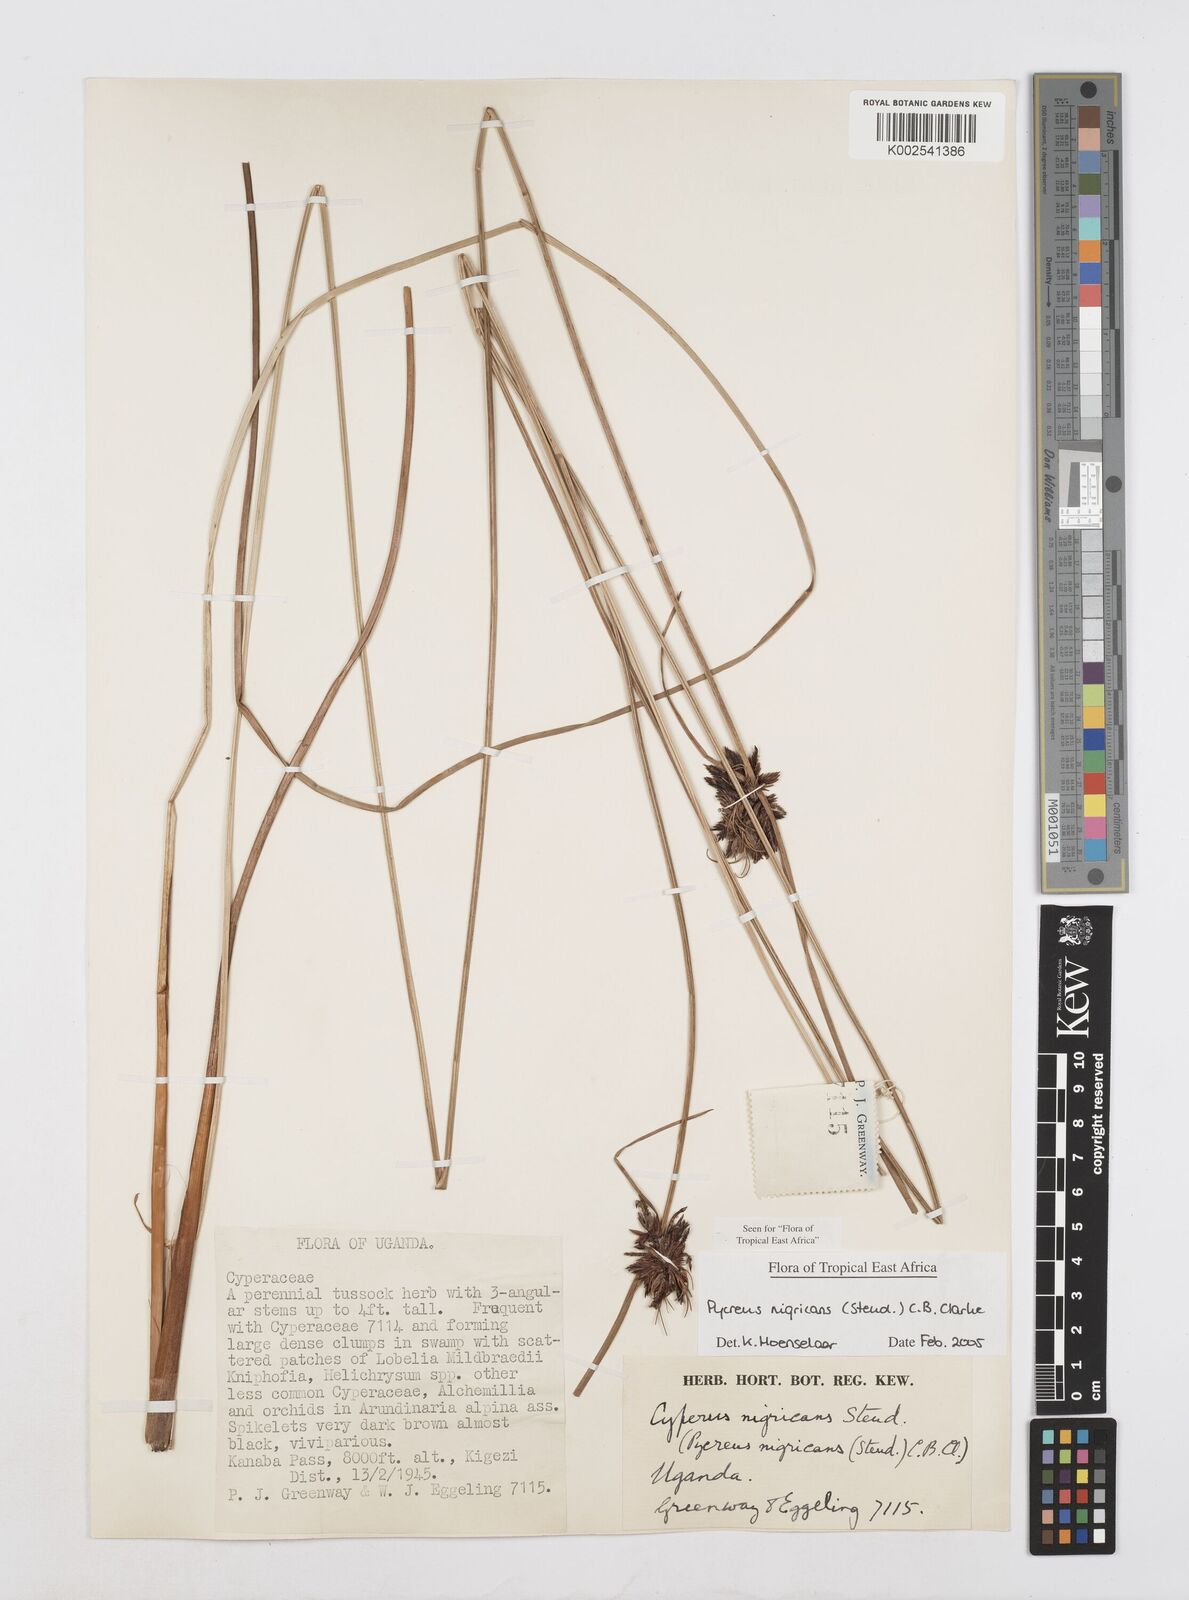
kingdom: Plantae
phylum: Tracheophyta
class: Liliopsida
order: Poales
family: Cyperaceae
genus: Cyperus
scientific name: Cyperus nigricans
